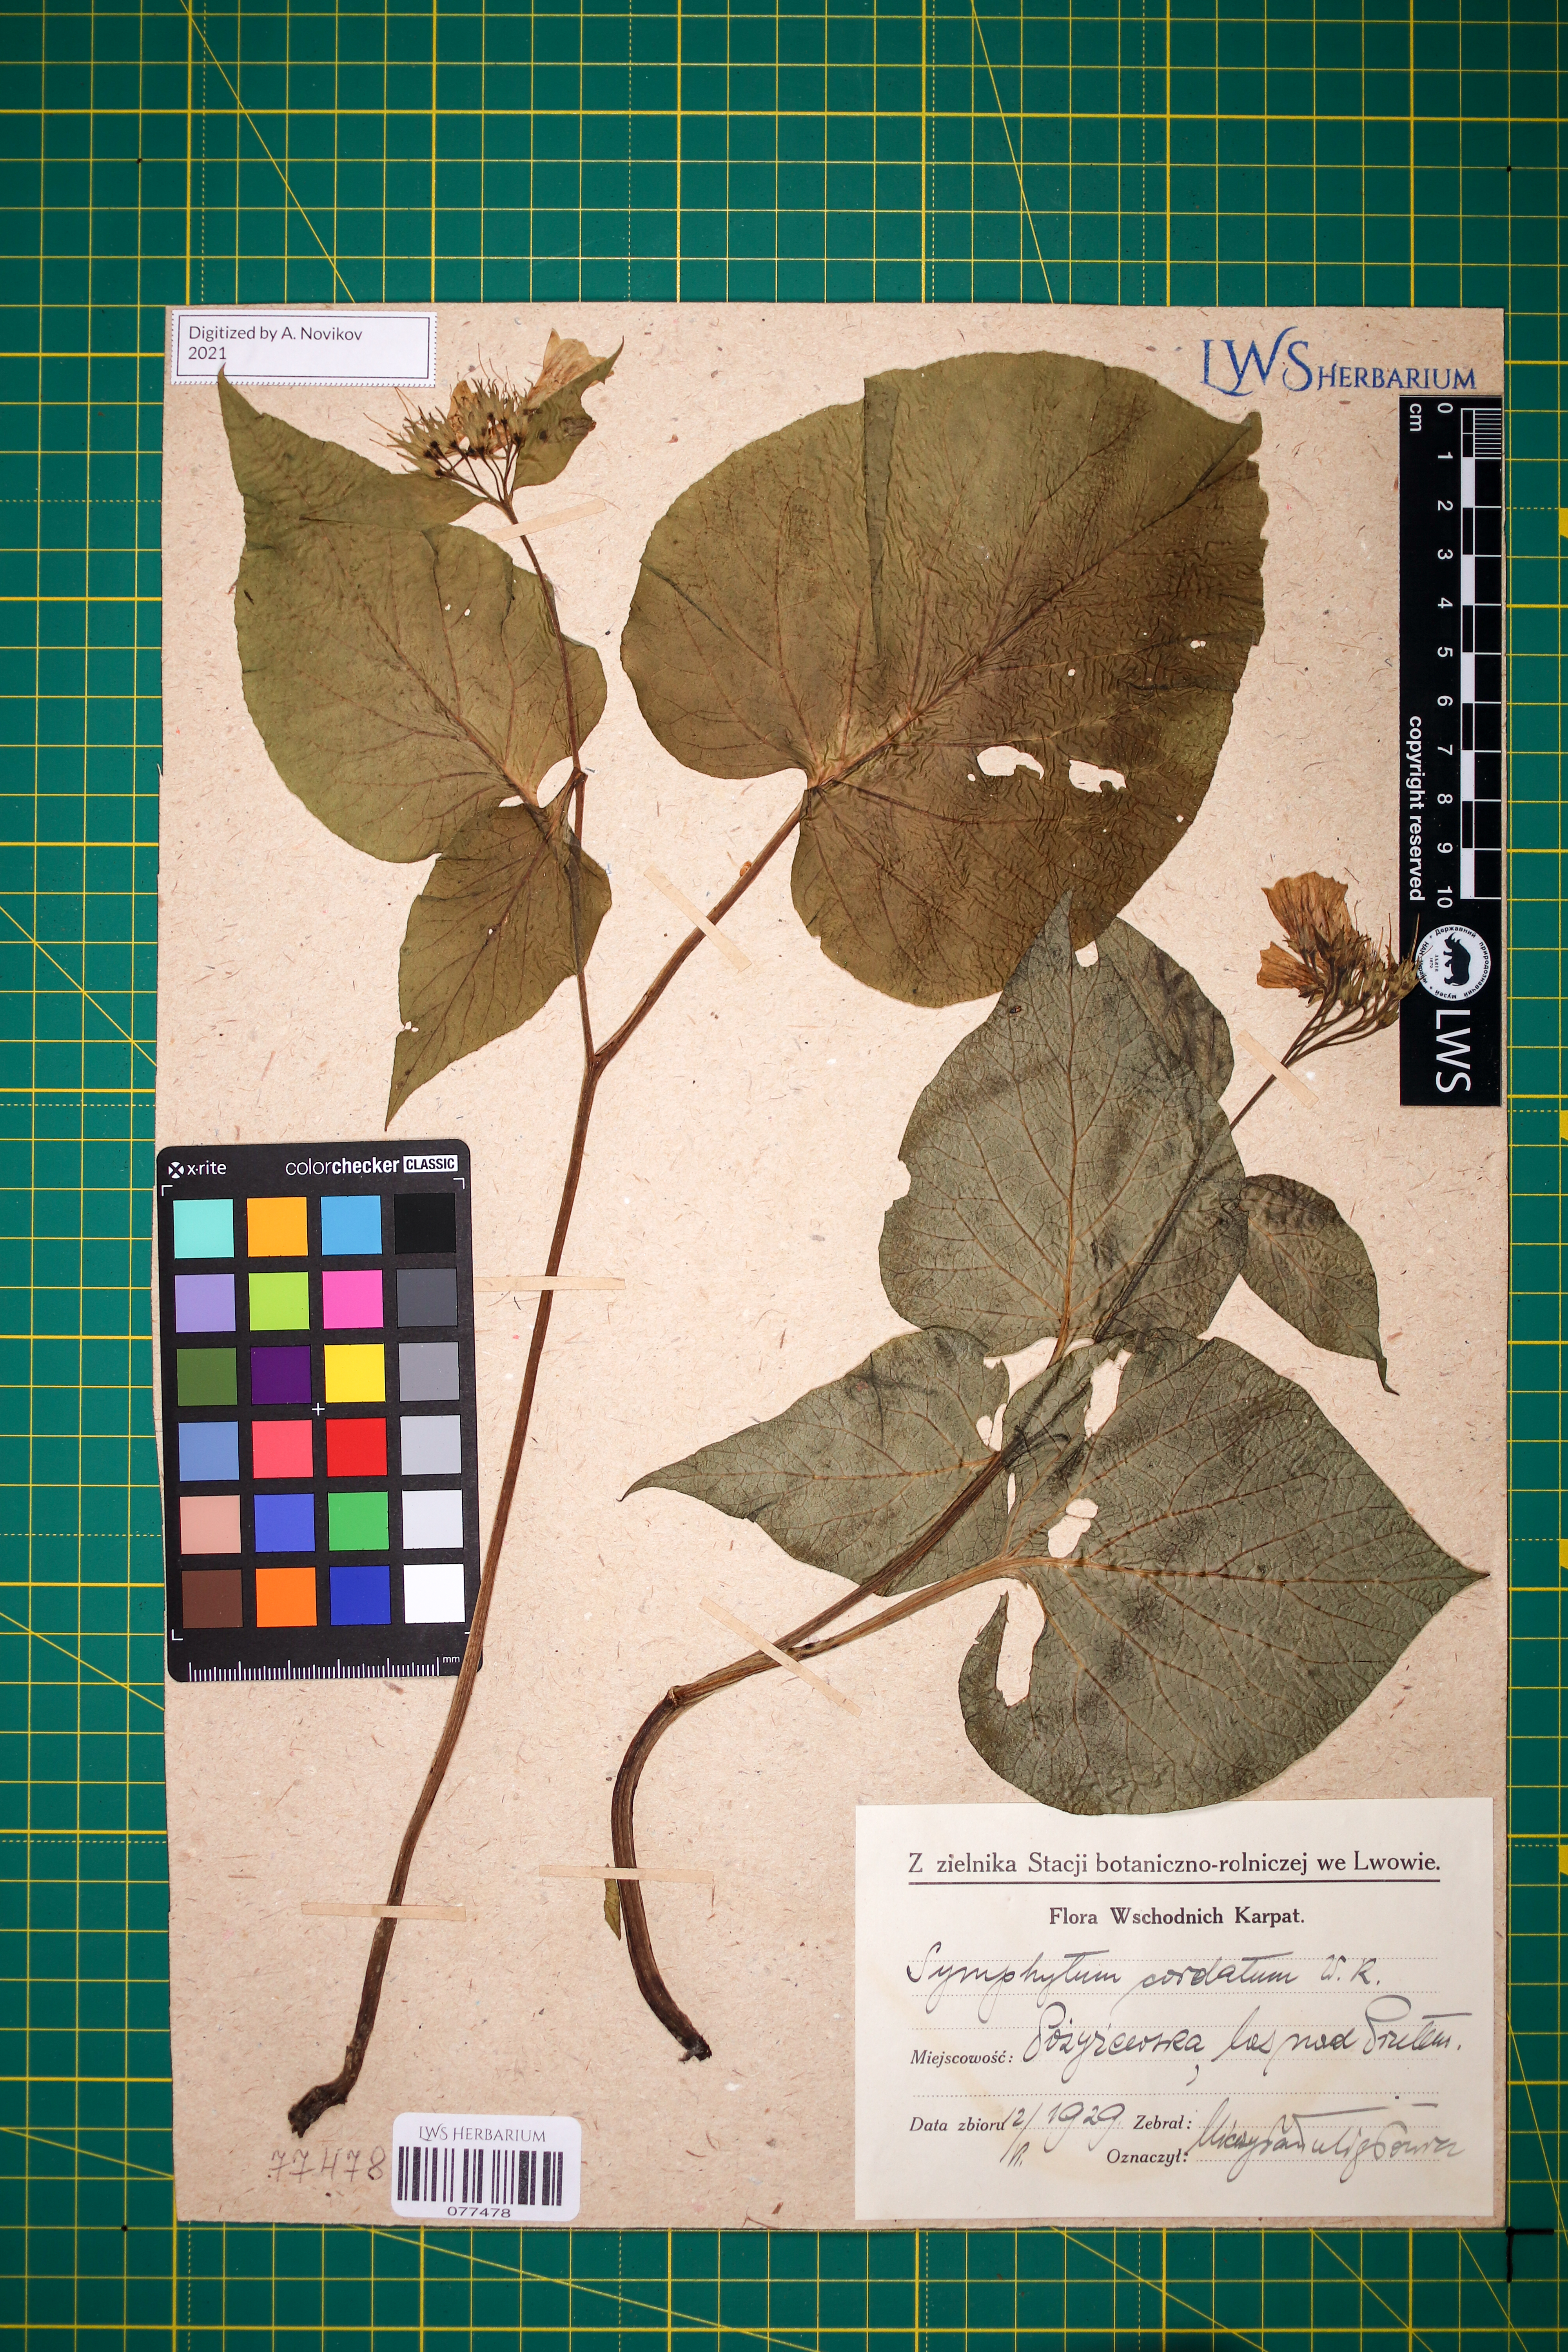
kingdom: Plantae
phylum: Tracheophyta
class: Magnoliopsida
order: Boraginales
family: Boraginaceae
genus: Symphytum
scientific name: Symphytum cordatum
